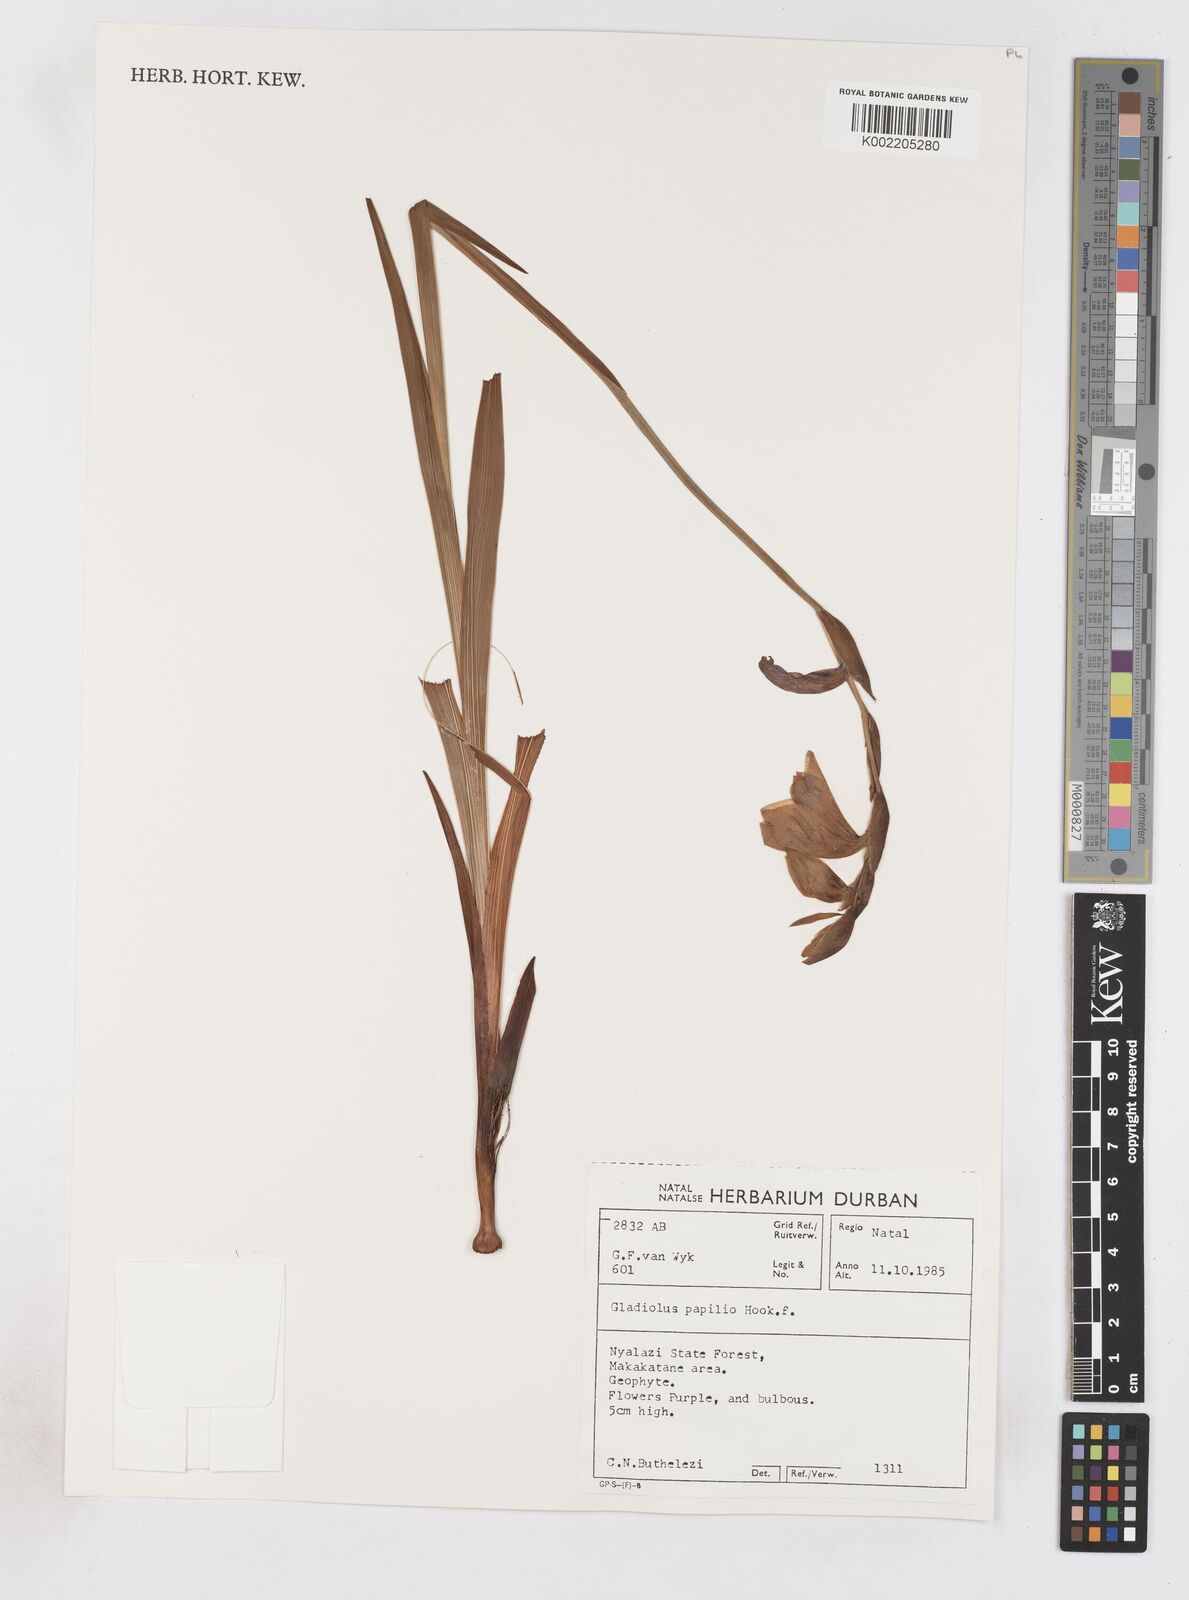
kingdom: Plantae
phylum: Tracheophyta
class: Liliopsida
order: Asparagales
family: Iridaceae
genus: Gladiolus
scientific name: Gladiolus papilio
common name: Goldblotch gladiolus
